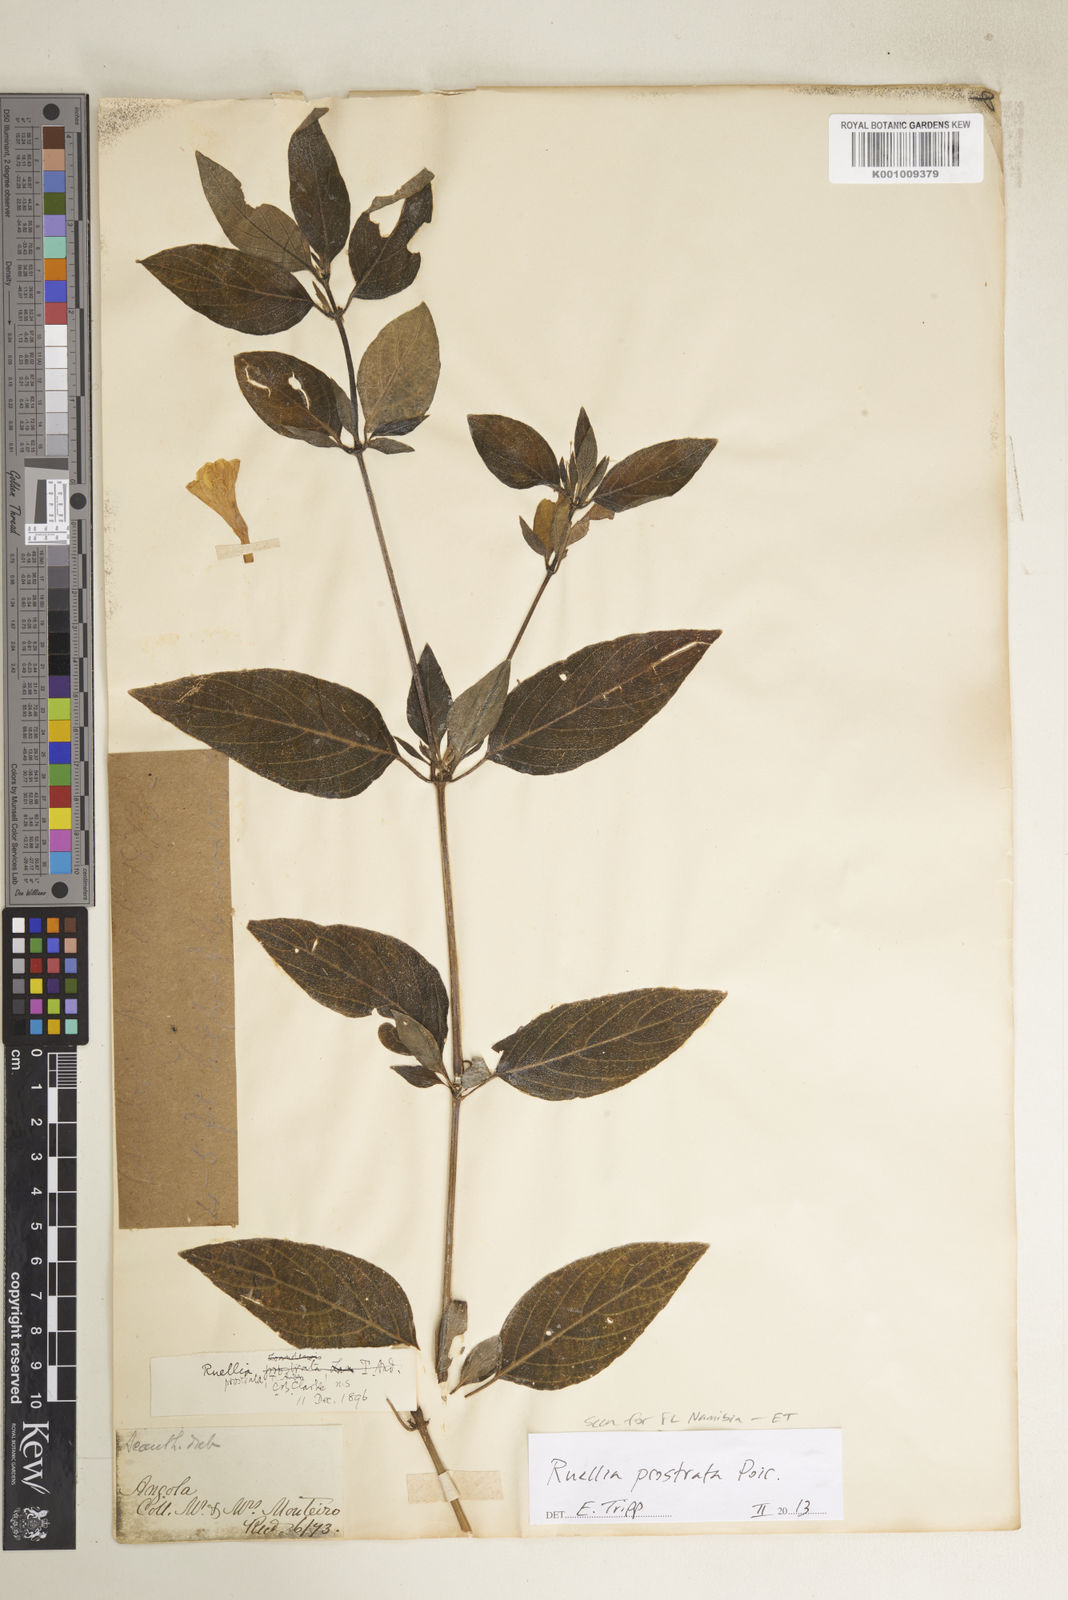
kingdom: Plantae
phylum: Tracheophyta
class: Magnoliopsida
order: Lamiales
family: Acanthaceae
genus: Ruellia
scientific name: Ruellia prostrata
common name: Prostrate wild petunia
